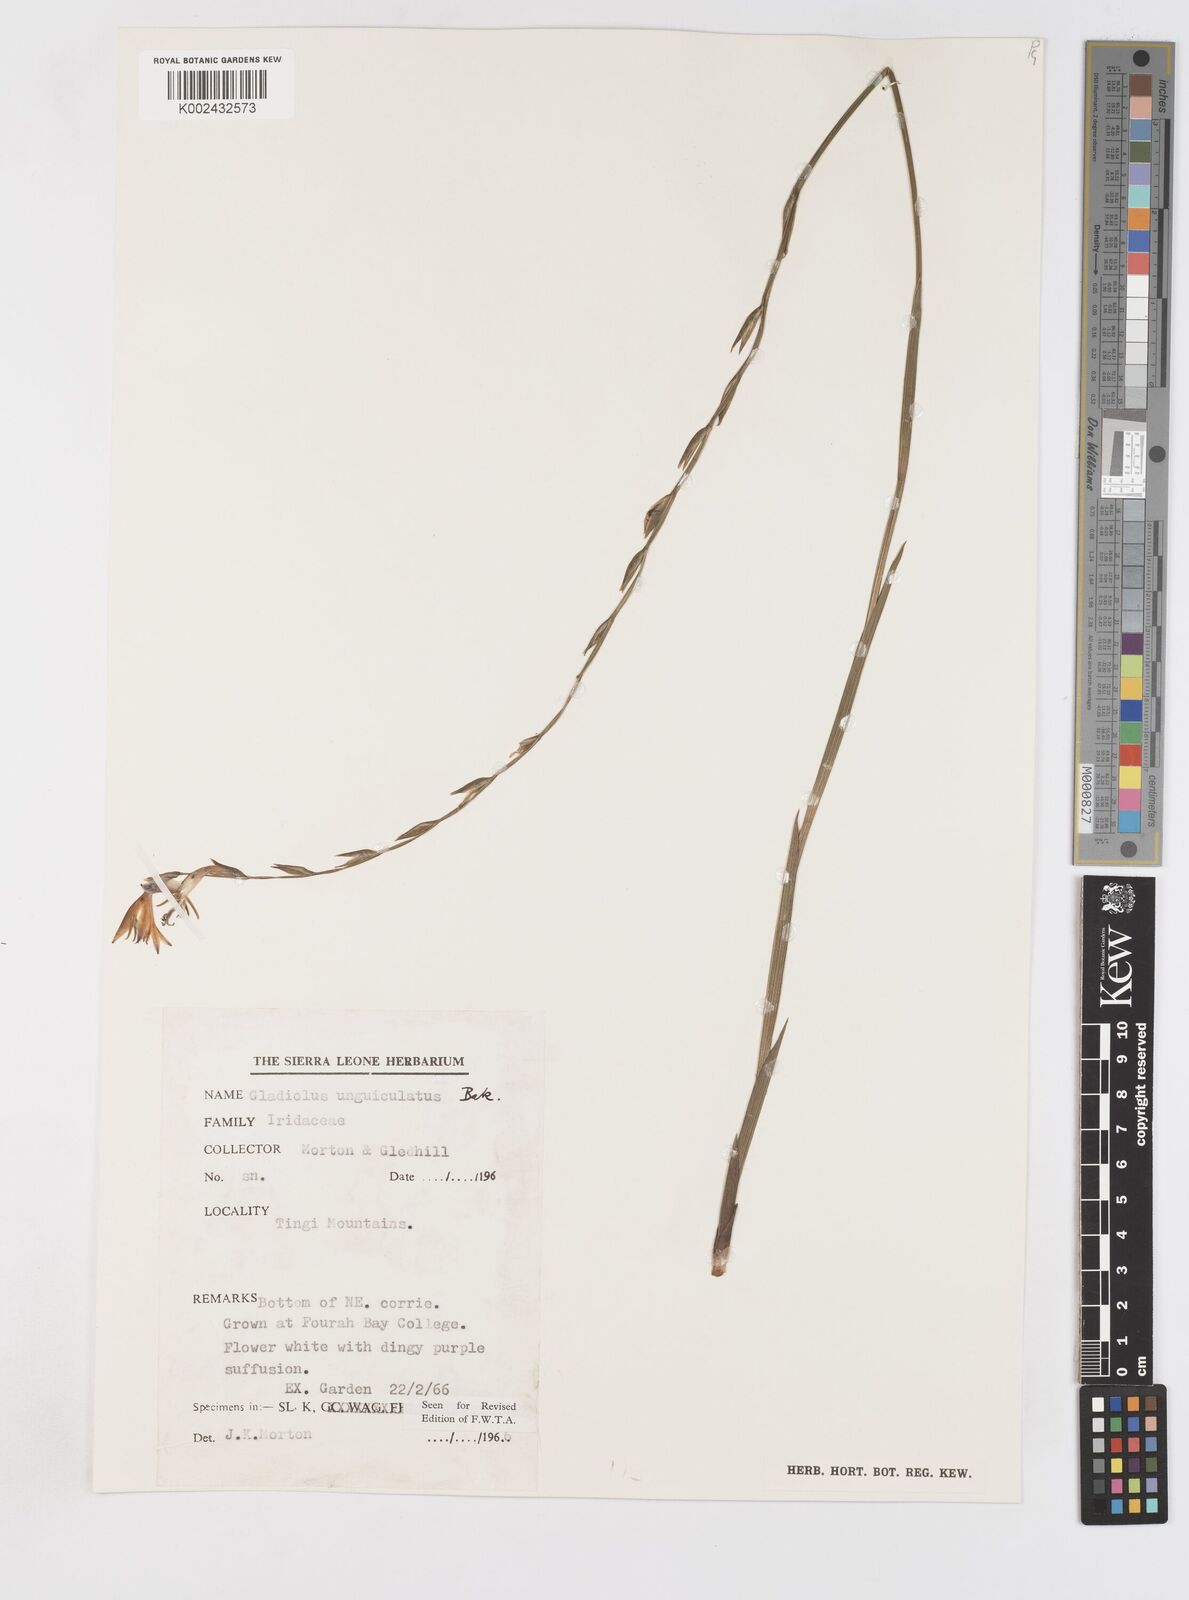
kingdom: Plantae
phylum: Tracheophyta
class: Liliopsida
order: Asparagales
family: Iridaceae
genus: Gladiolus
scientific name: Gladiolus unguiculatus
